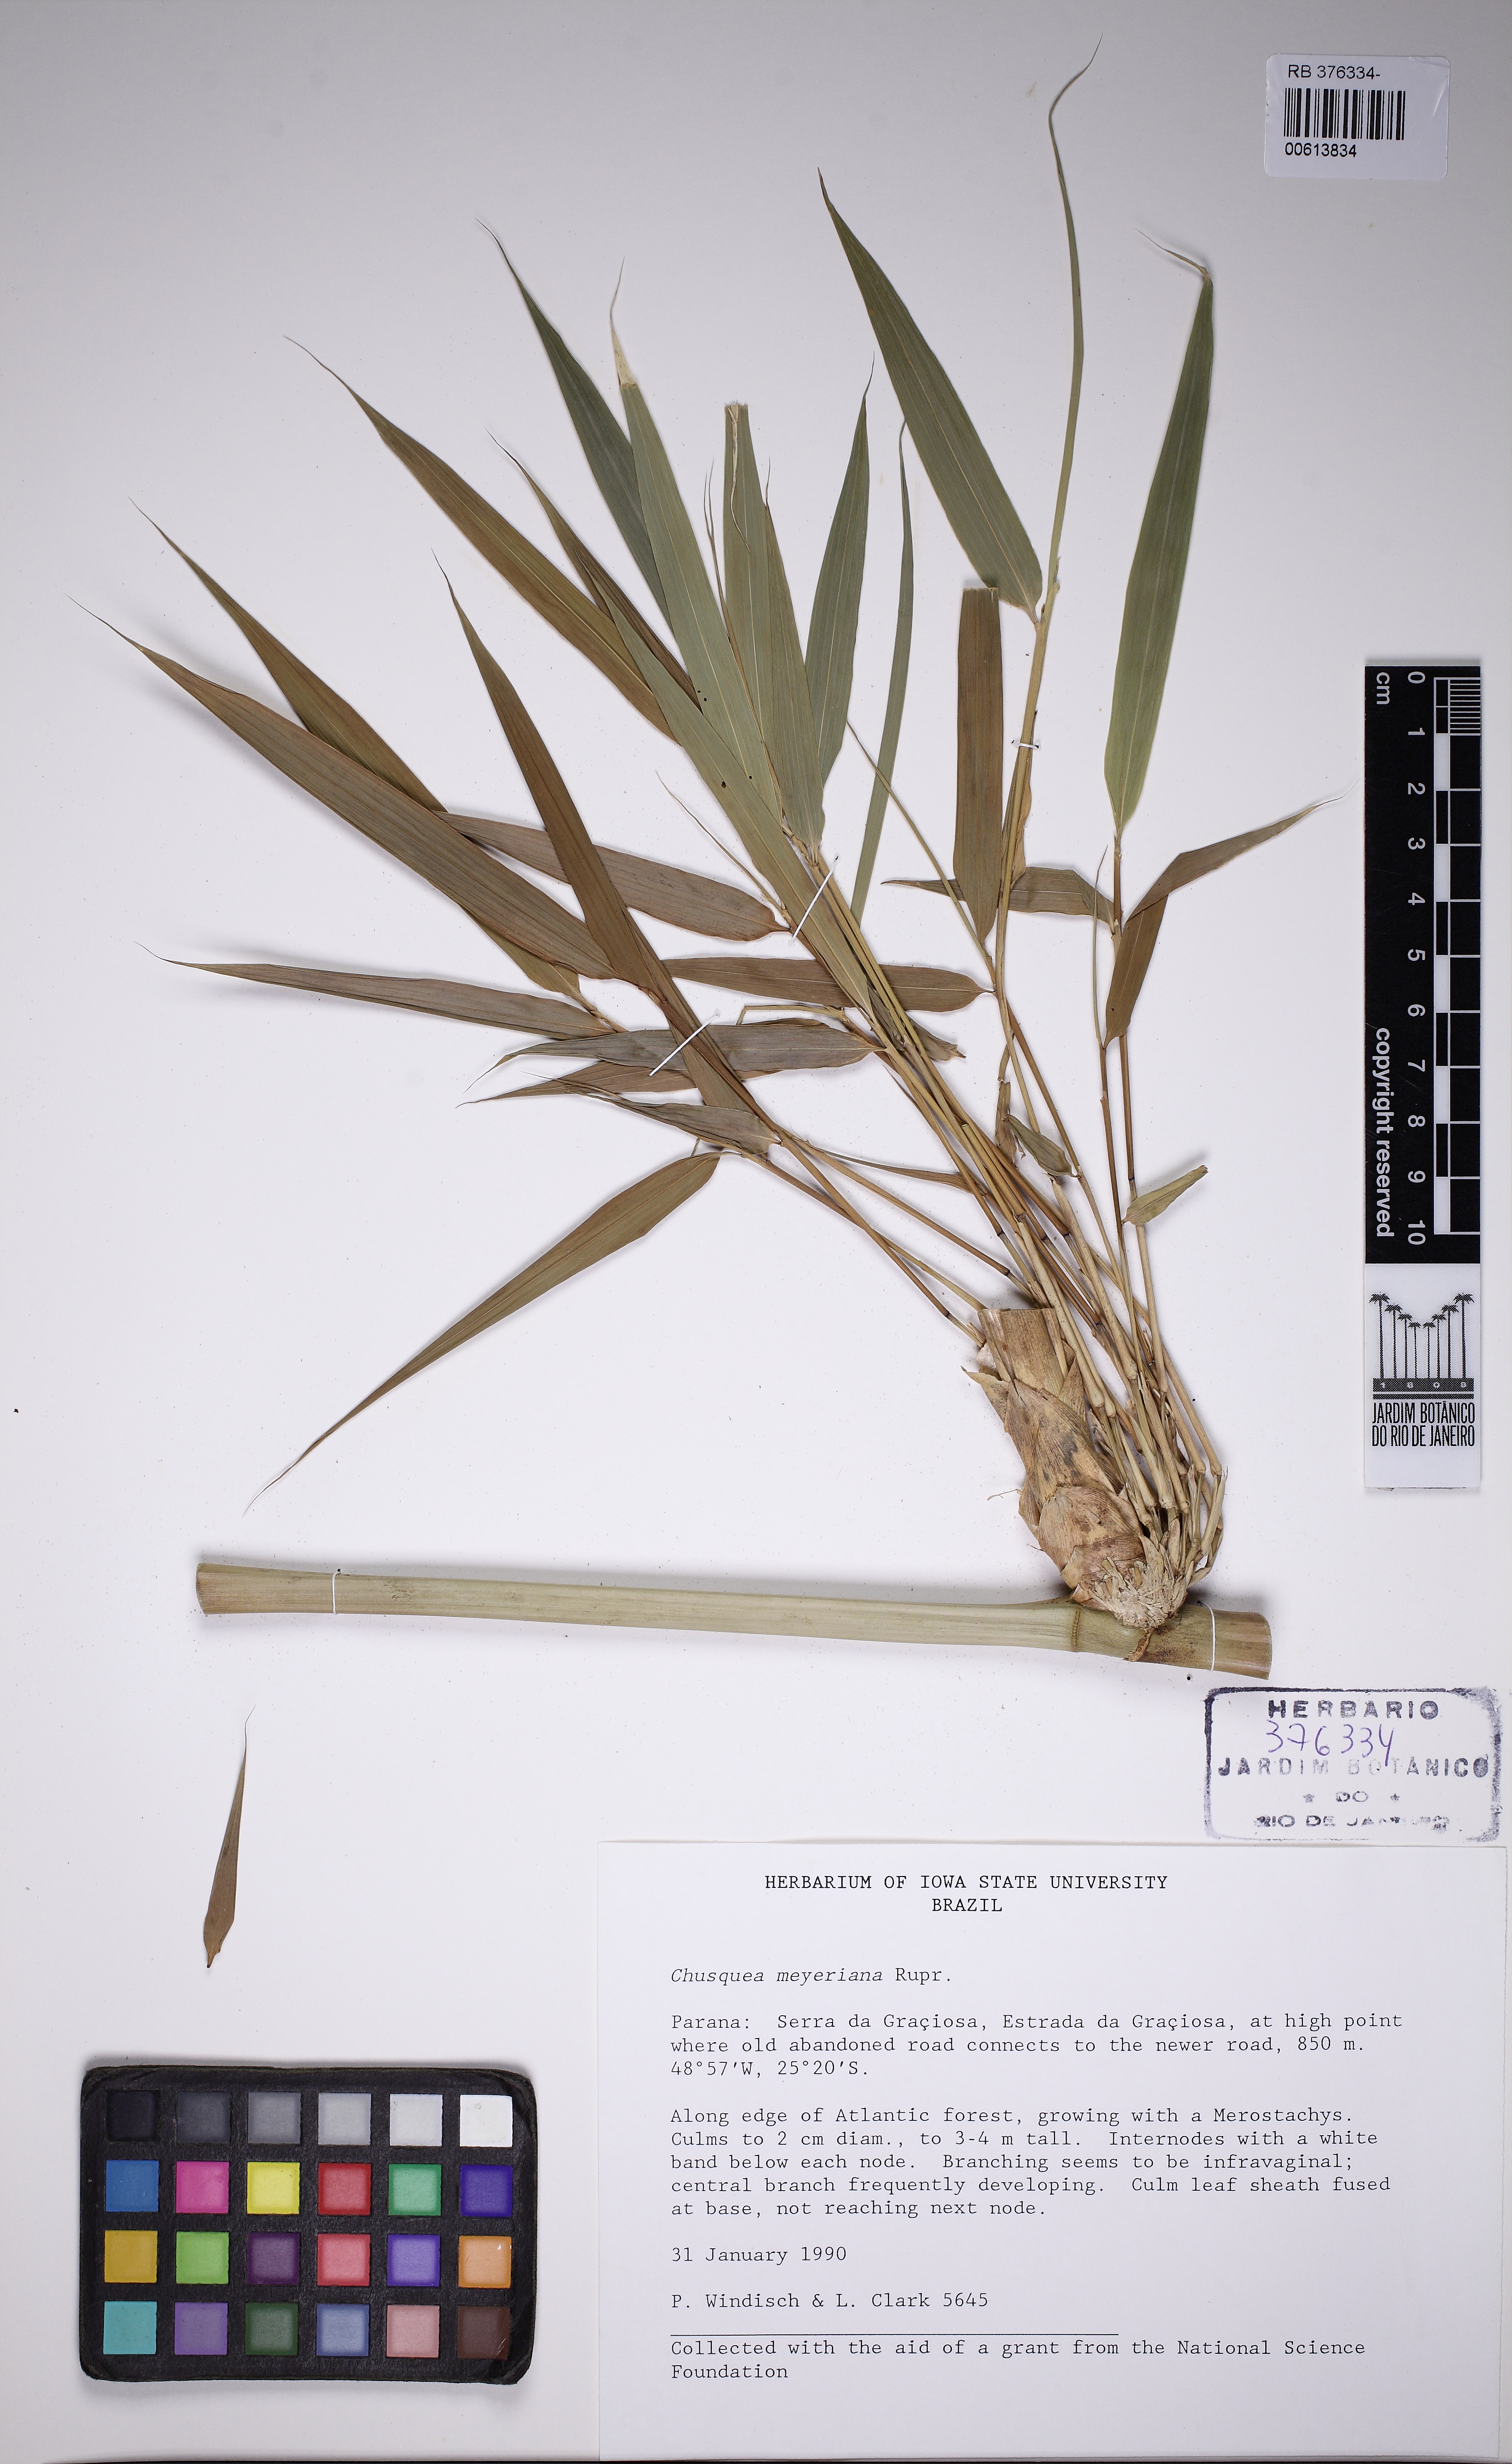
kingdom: Plantae
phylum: Tracheophyta
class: Liliopsida
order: Poales
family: Poaceae
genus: Chusquea
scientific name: Chusquea meyeriana
